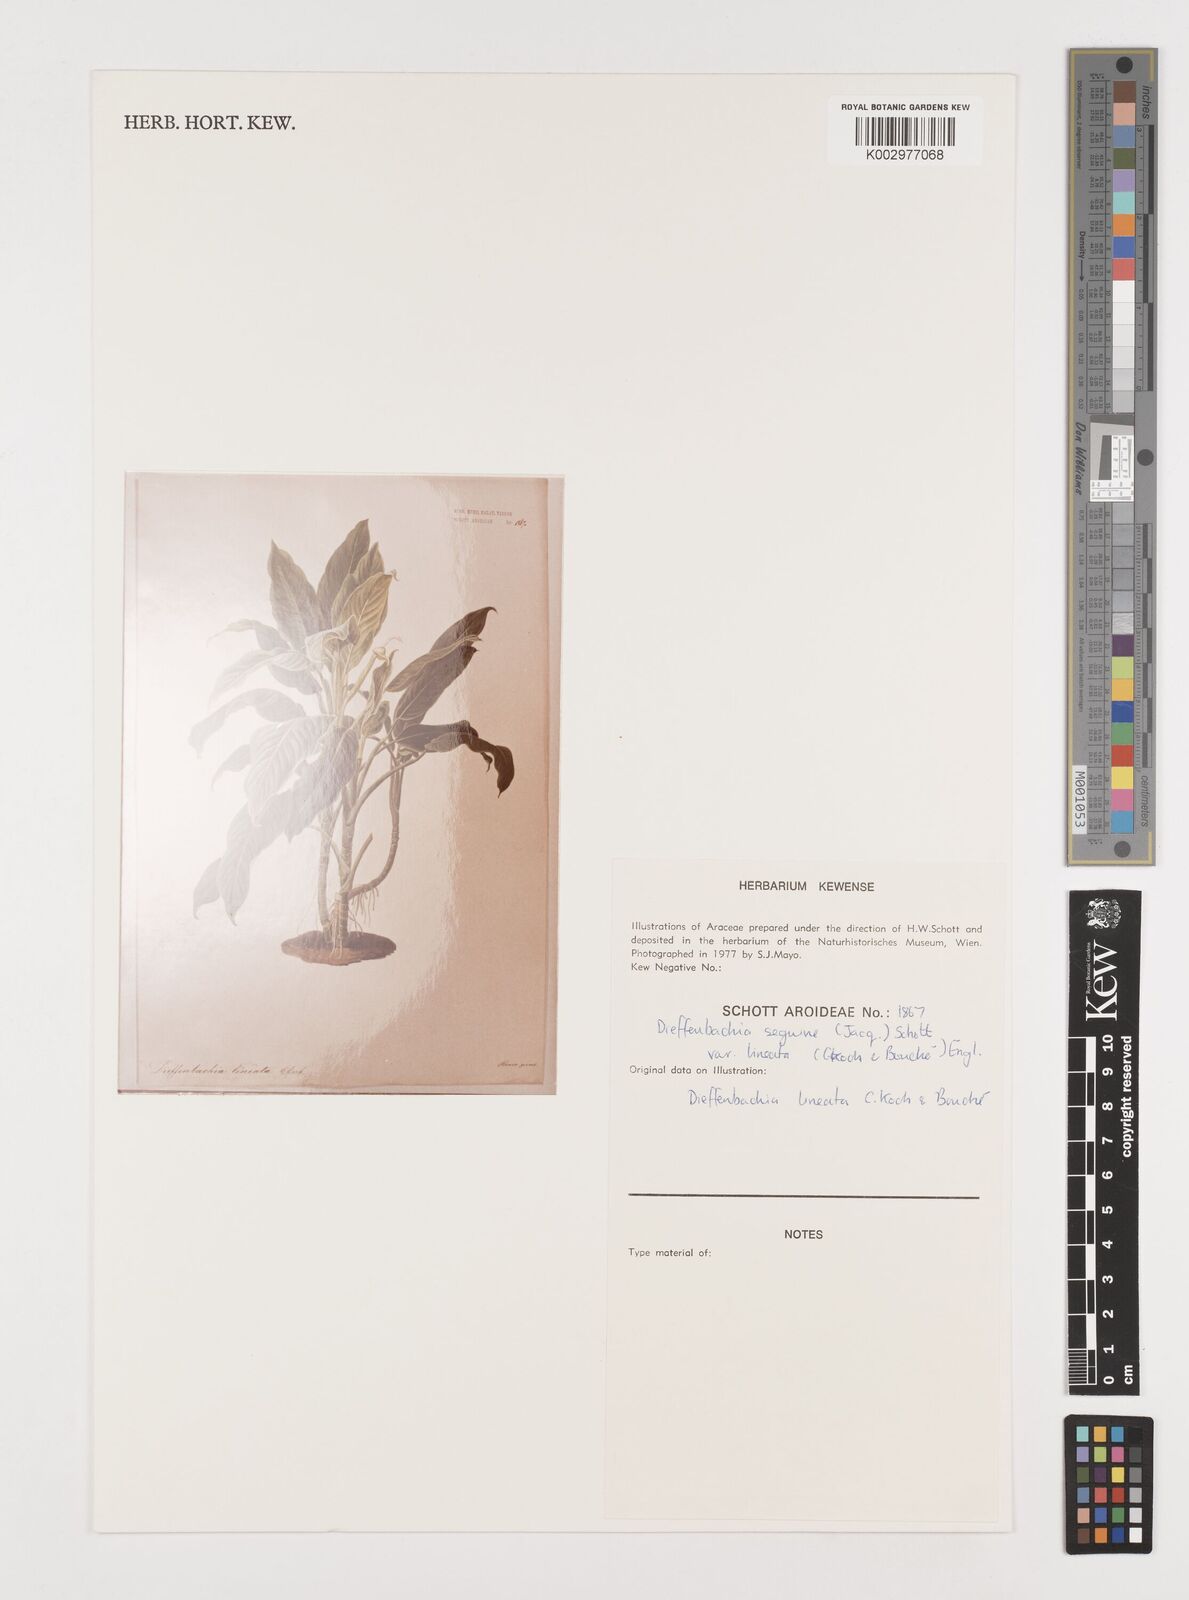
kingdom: Plantae
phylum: Tracheophyta
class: Liliopsida
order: Alismatales
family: Araceae
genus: Dieffenbachia
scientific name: Dieffenbachia seguine
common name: Dumbcane
